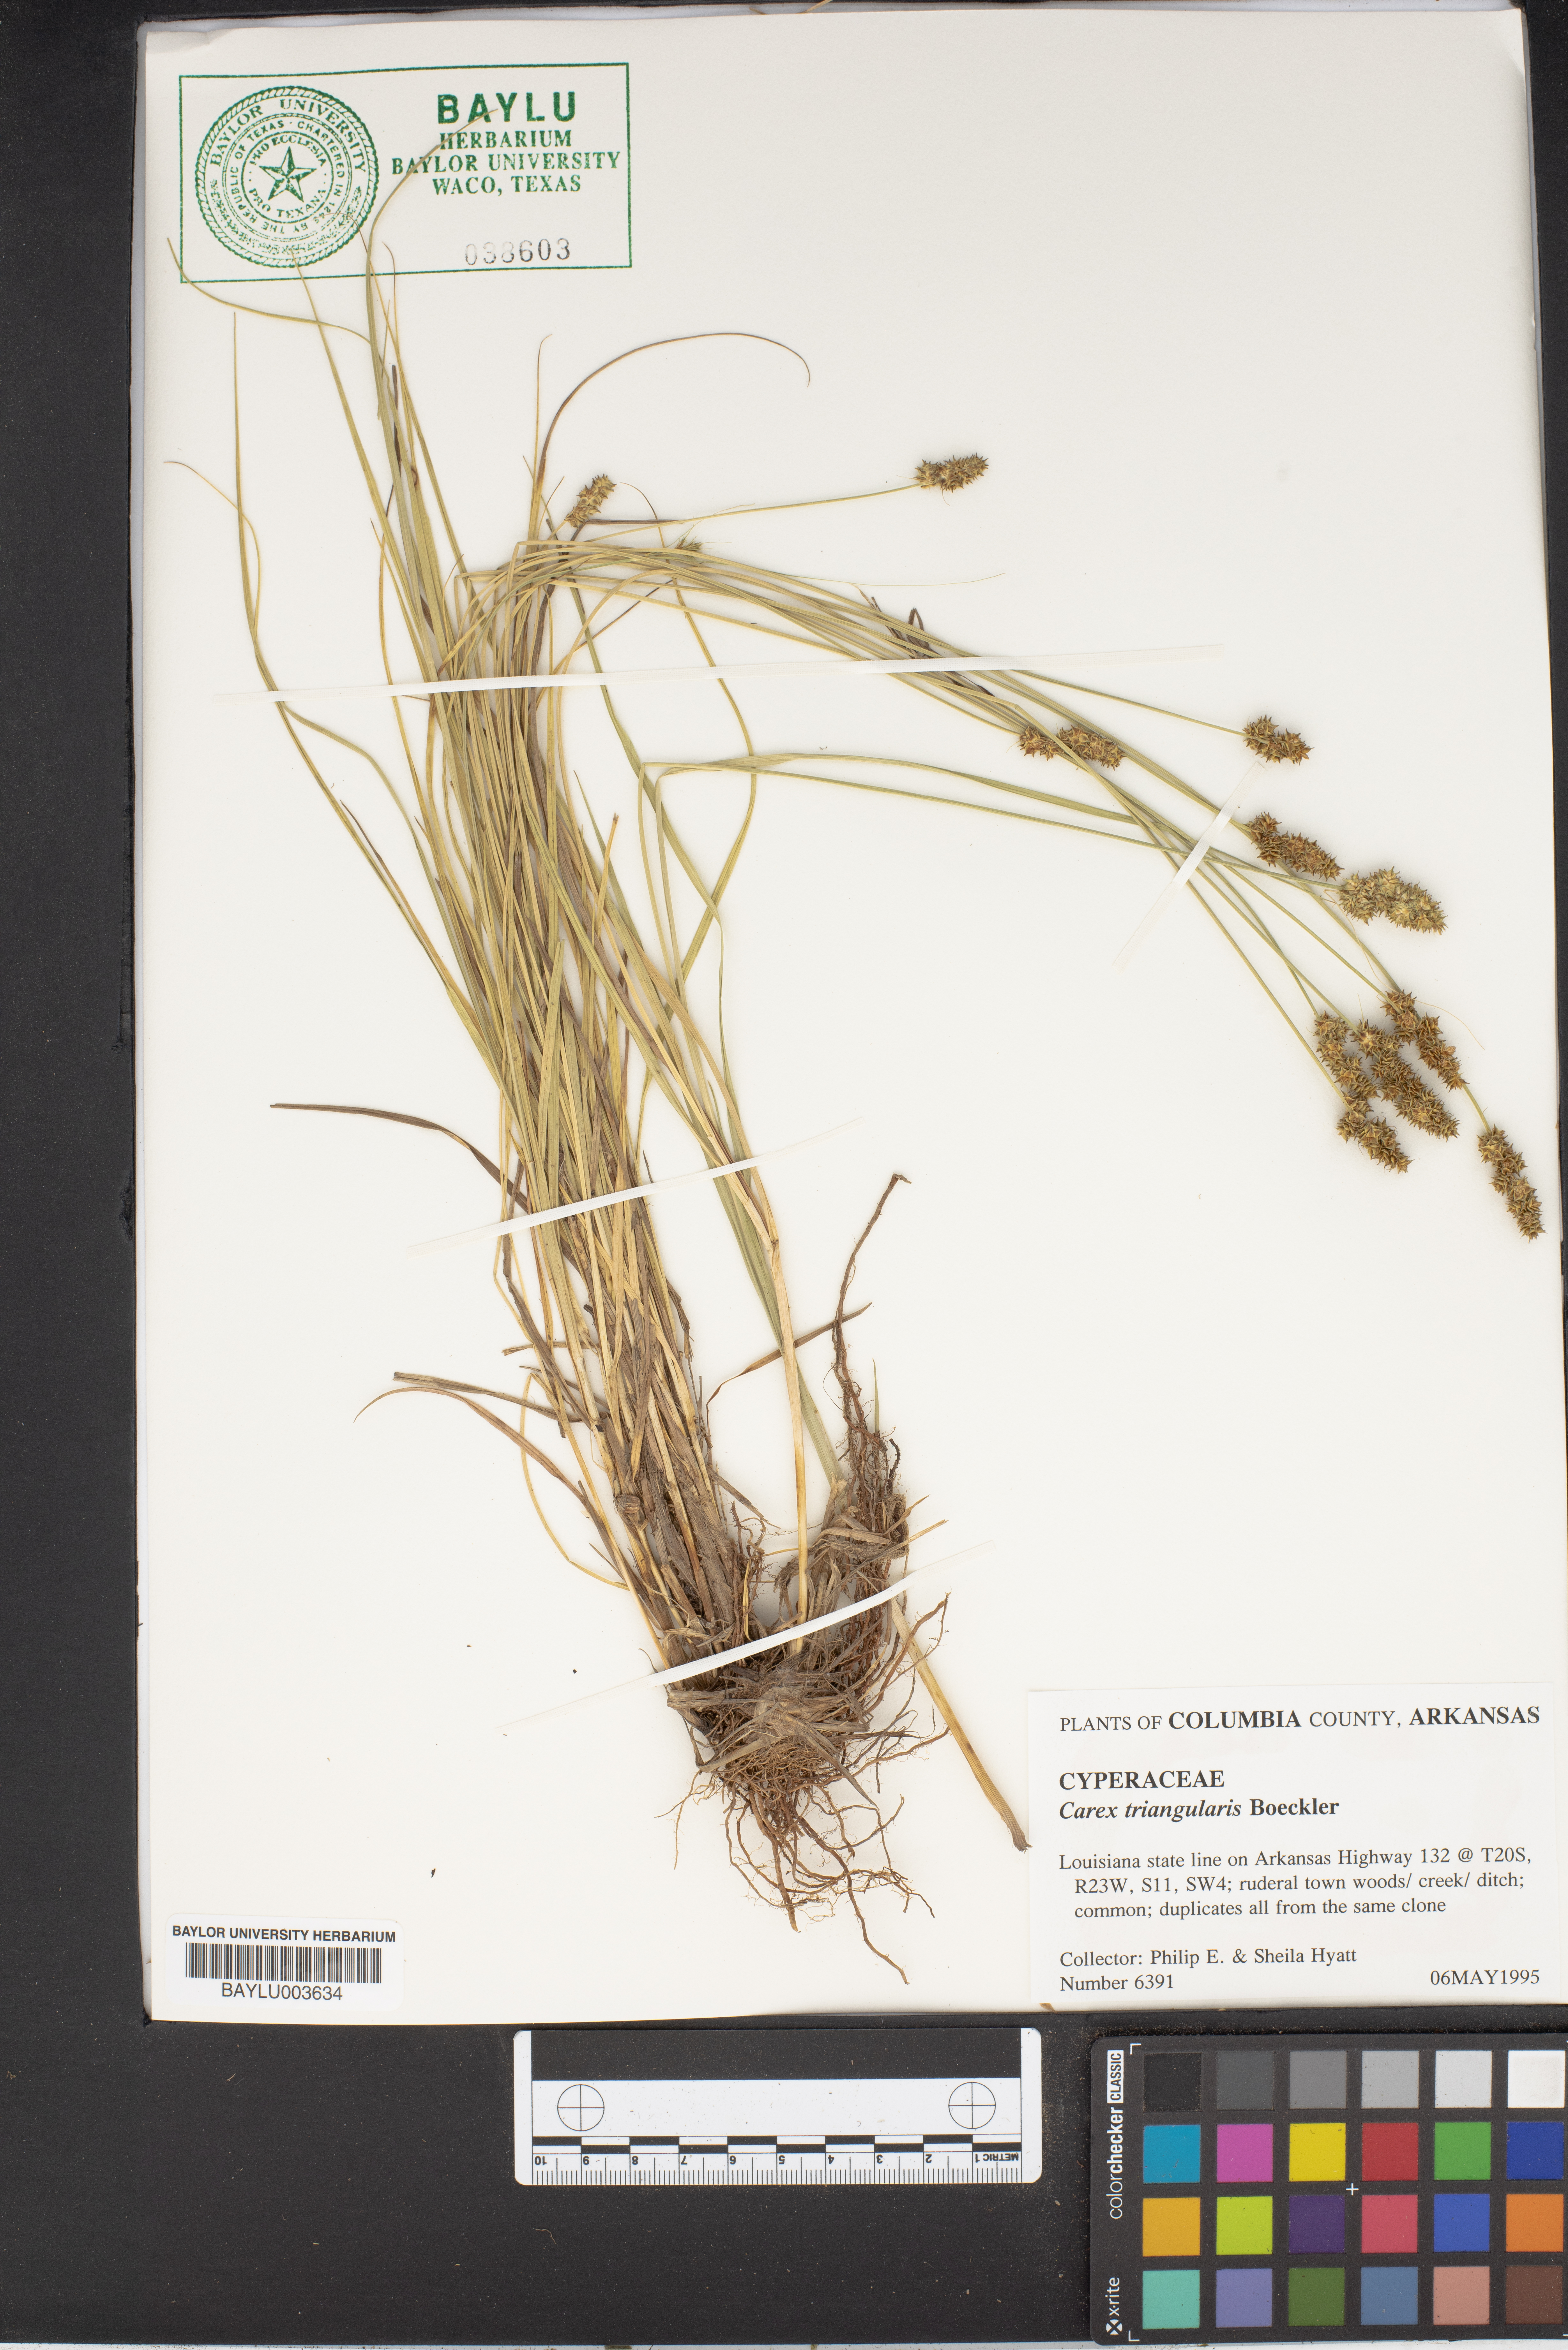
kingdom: Plantae
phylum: Tracheophyta
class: Liliopsida
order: Poales
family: Cyperaceae
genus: Carex
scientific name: Carex triangularis
